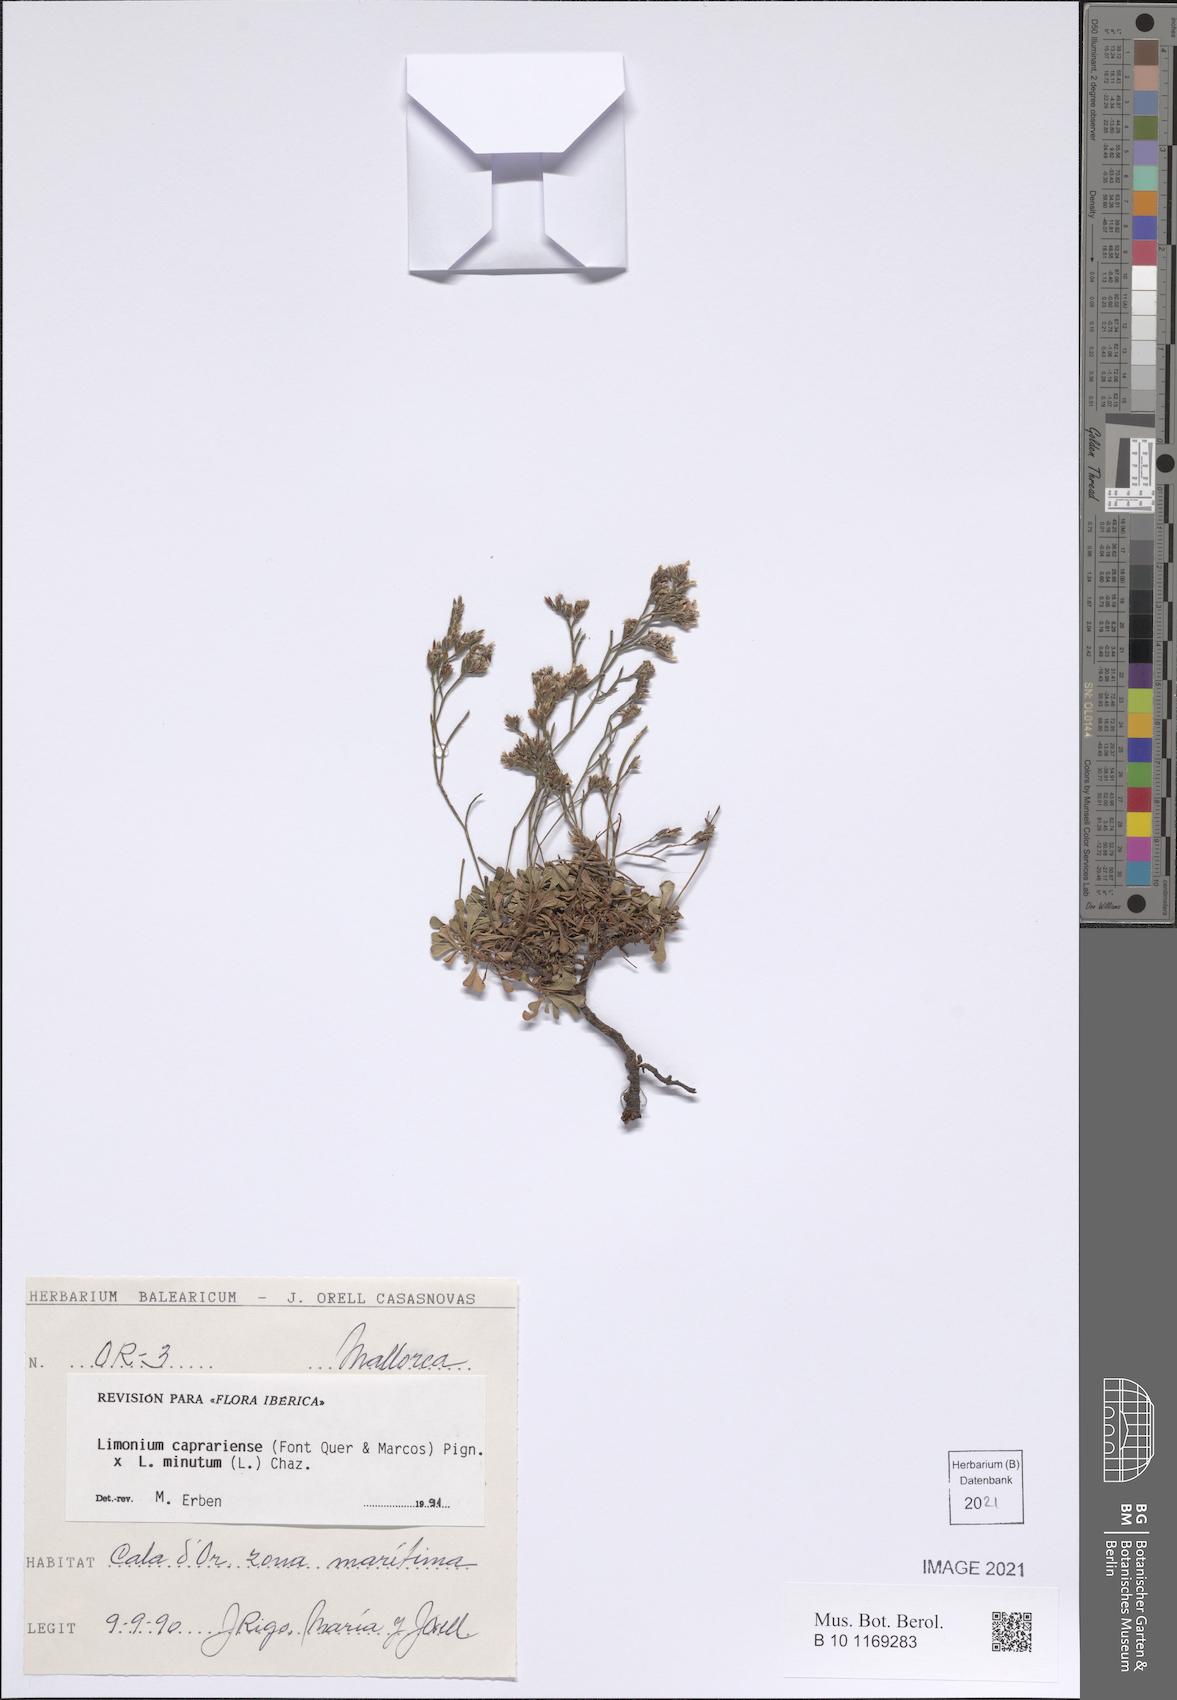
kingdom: Plantae
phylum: Tracheophyta
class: Magnoliopsida
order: Caryophyllales
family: Plumbaginaceae
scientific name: Plumbaginaceae
